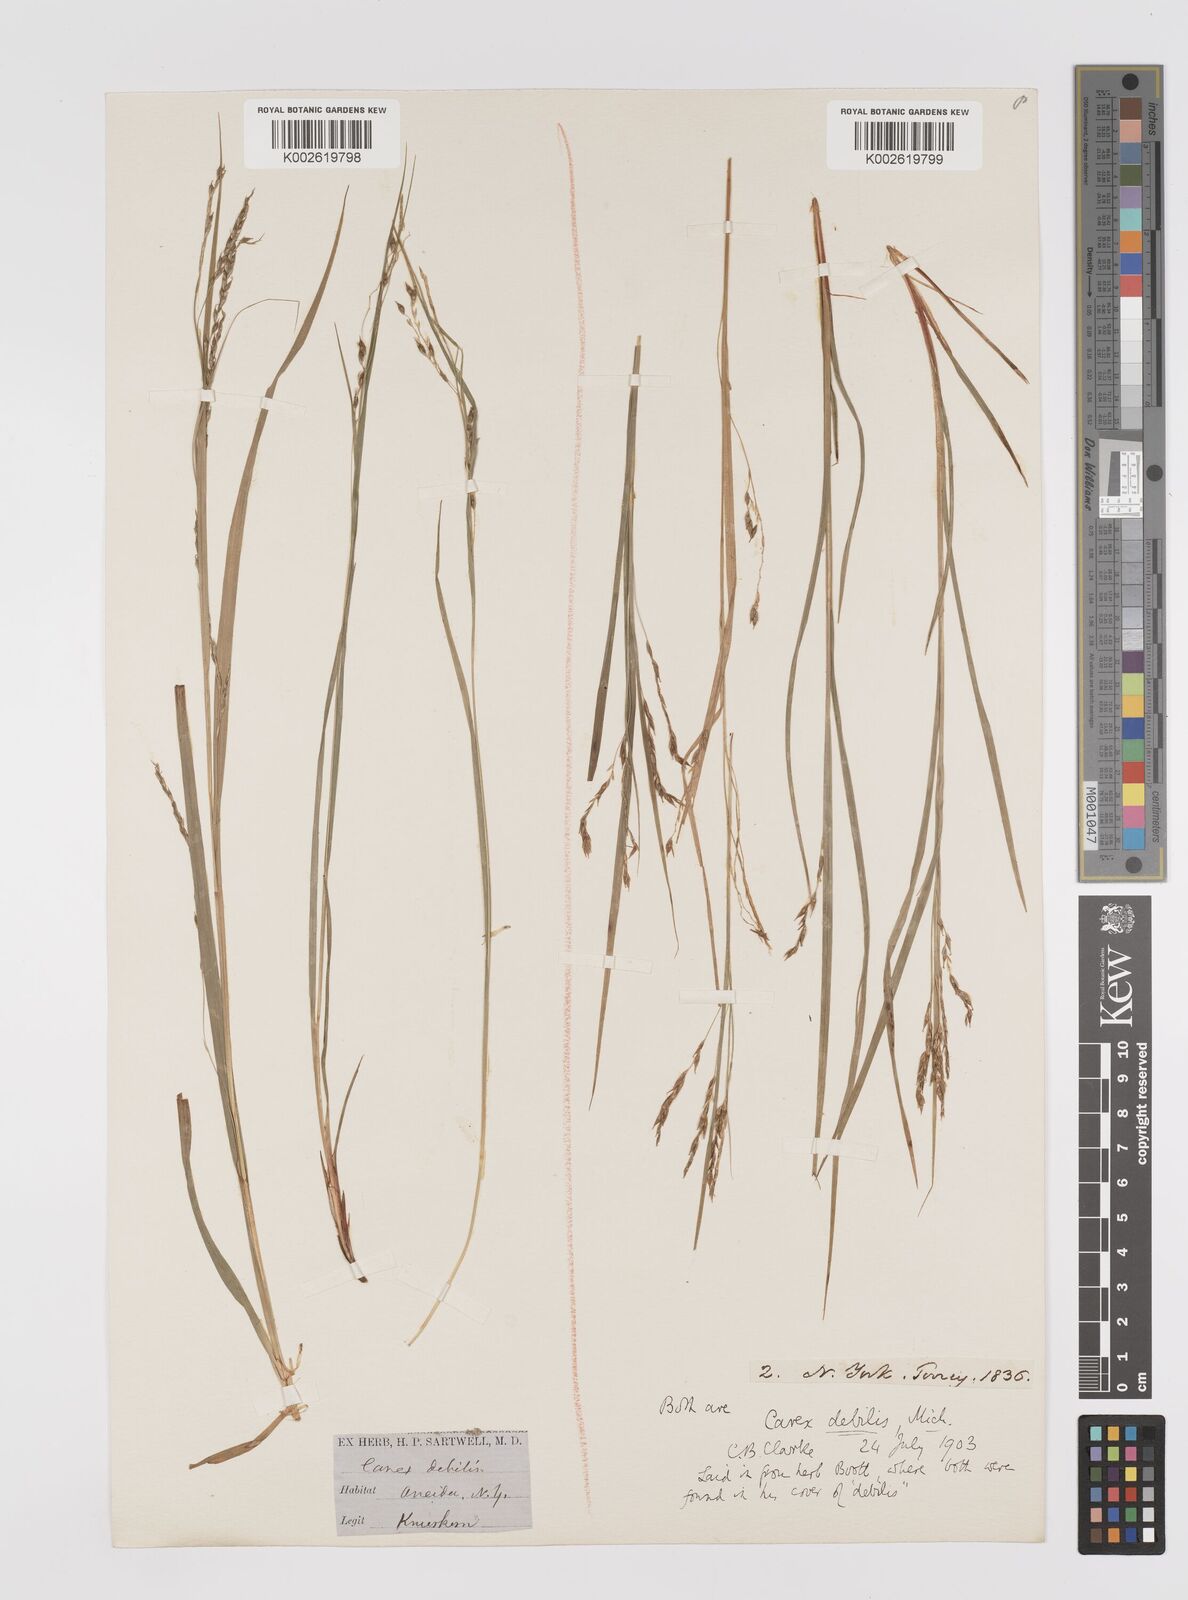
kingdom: Plantae
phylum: Tracheophyta
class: Liliopsida
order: Poales
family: Cyperaceae
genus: Carex
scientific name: Carex debilis
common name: White-edge sedge
